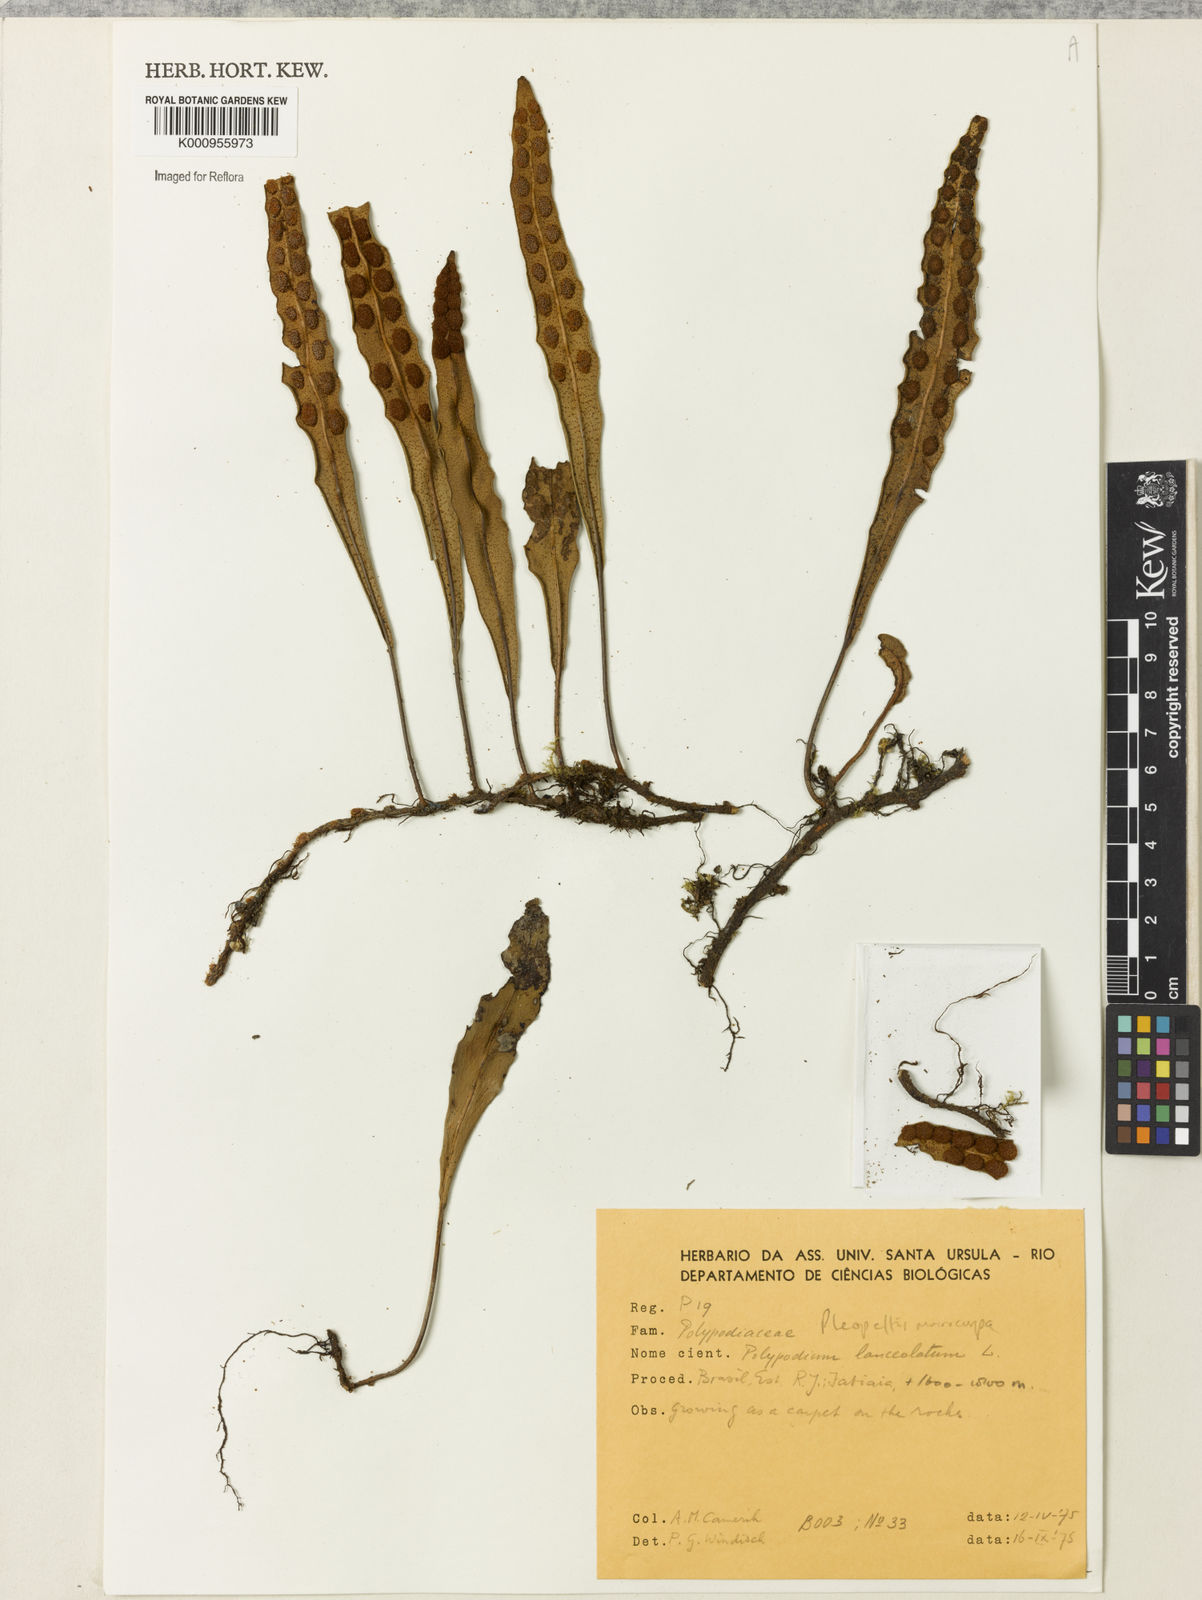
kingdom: Plantae
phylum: Tracheophyta
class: Polypodiopsida
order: Polypodiales
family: Polypodiaceae
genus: Pleopeltis
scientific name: Pleopeltis
